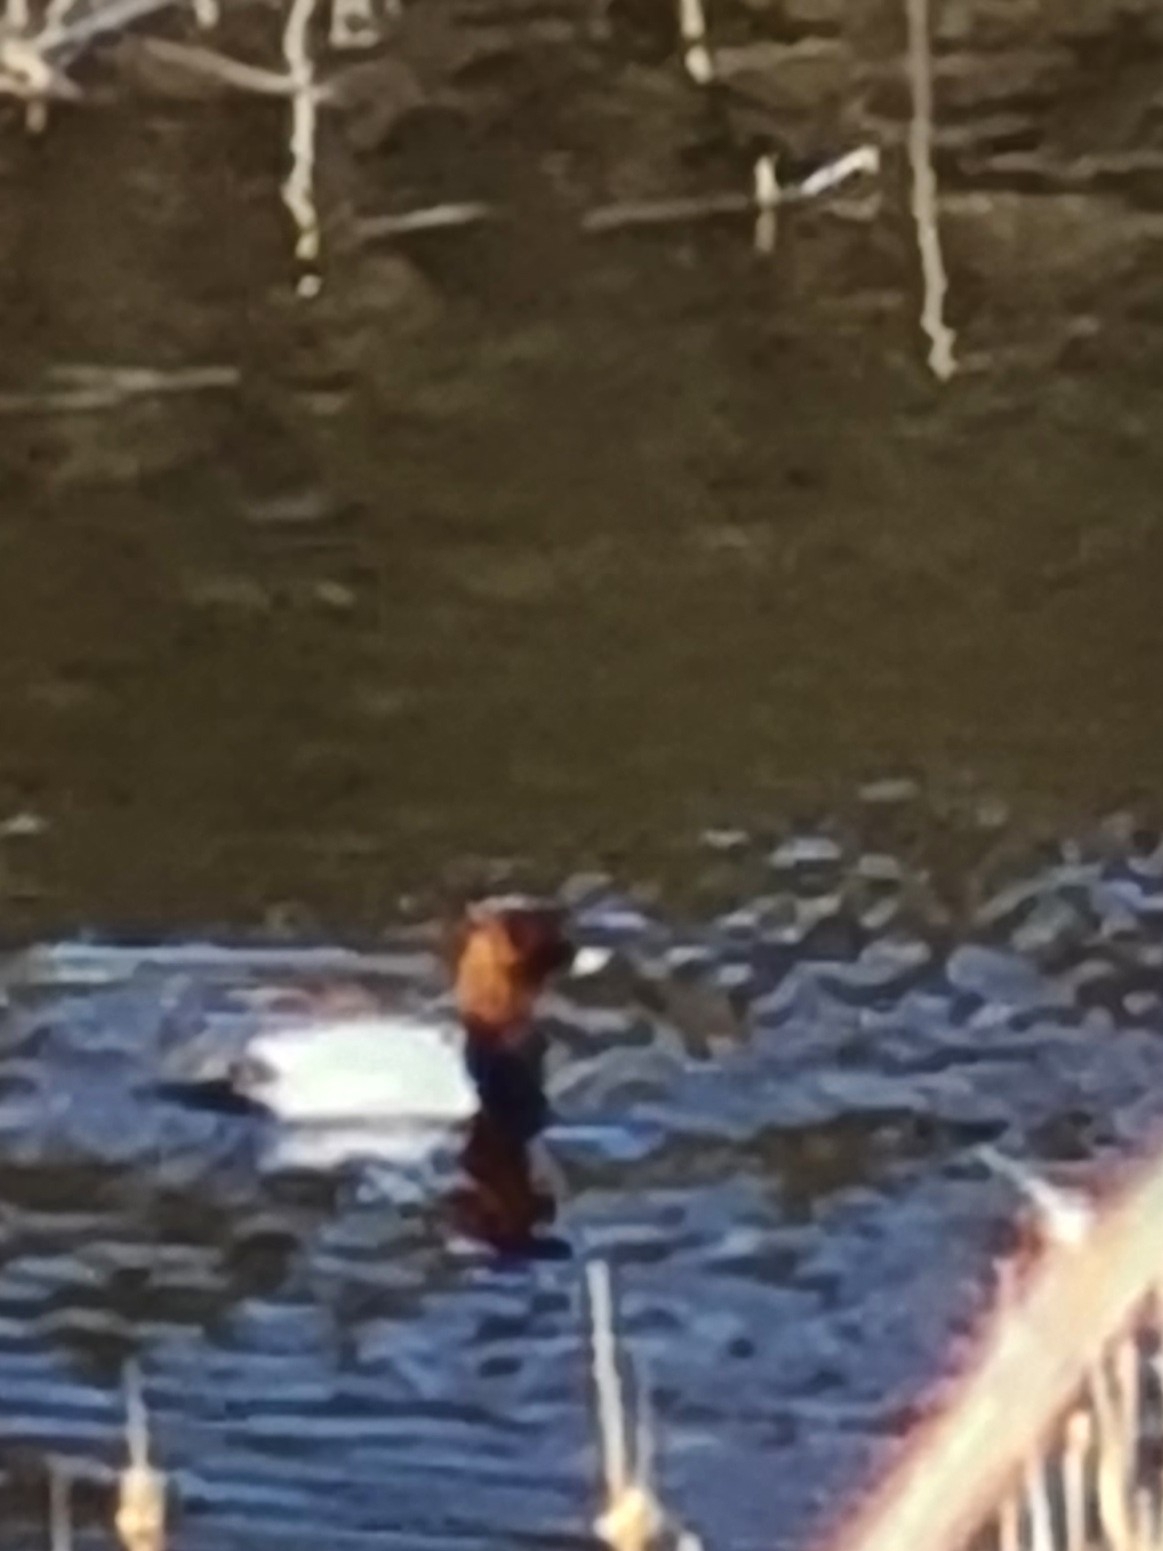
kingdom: Animalia
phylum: Chordata
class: Aves
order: Anseriformes
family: Anatidae
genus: Aythya
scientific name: Aythya ferina
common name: Taffeland
